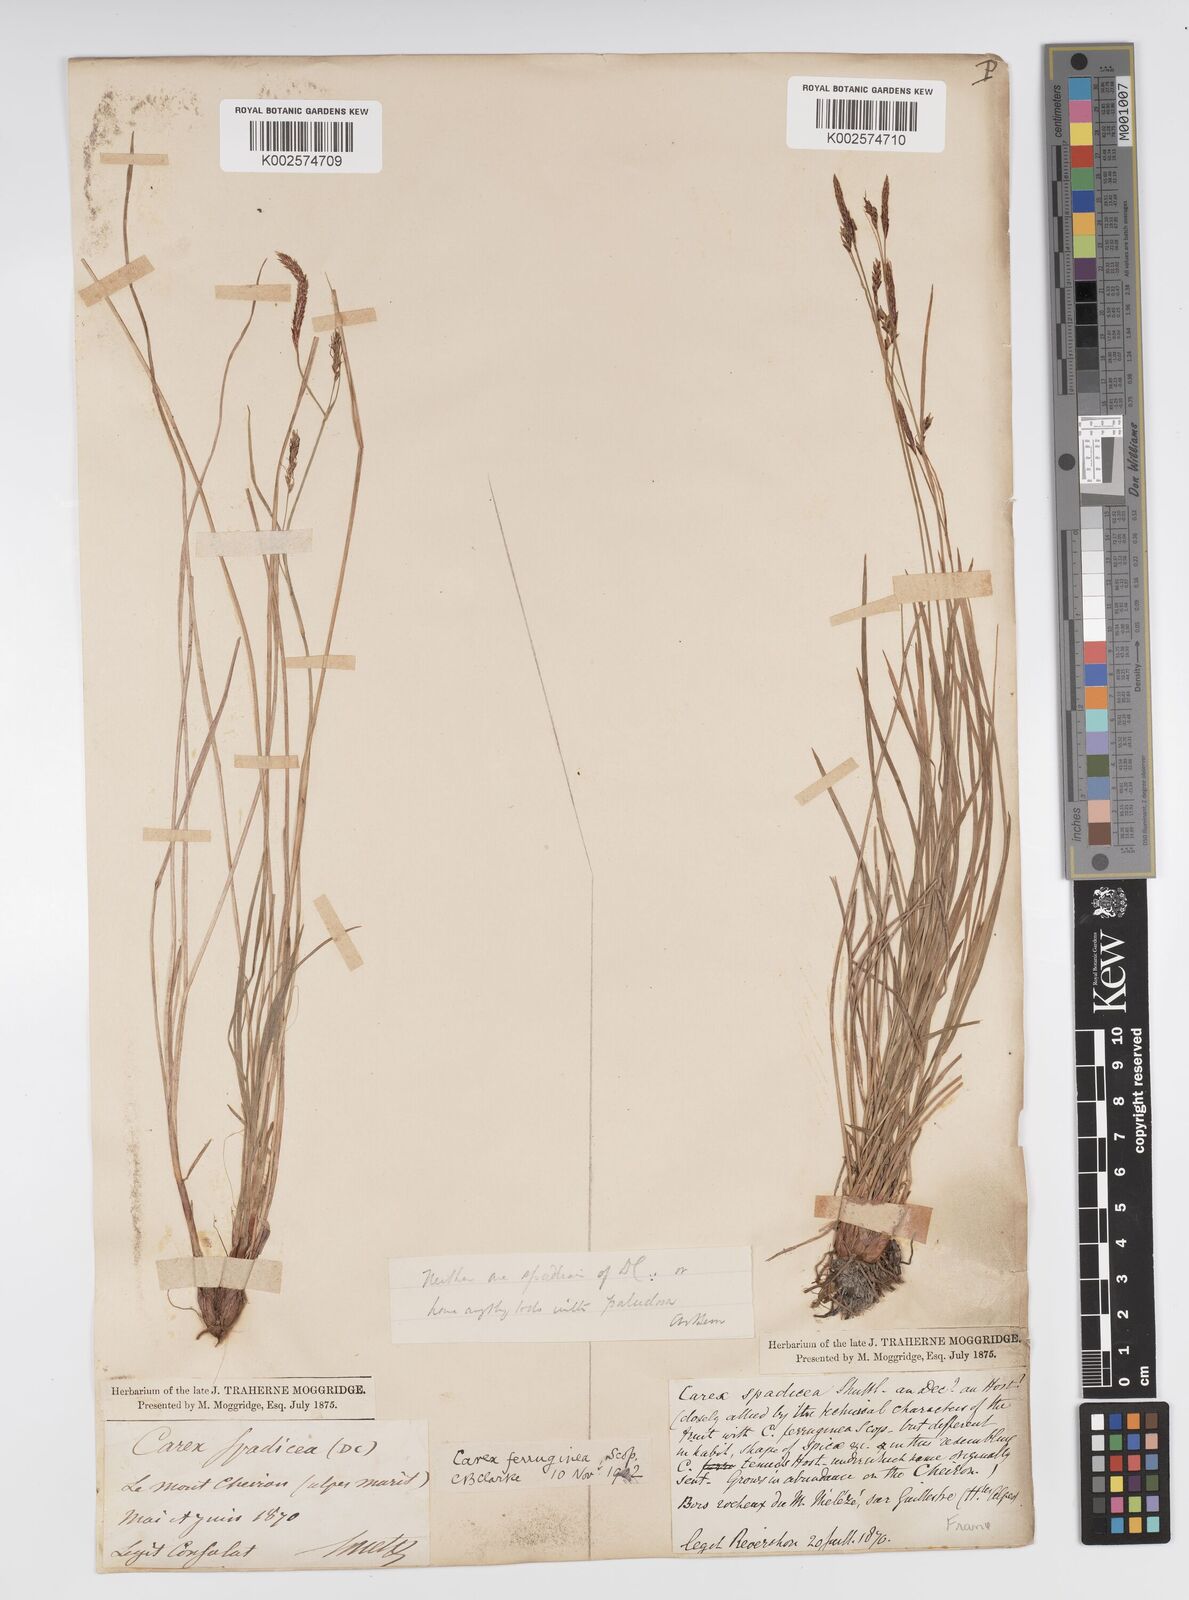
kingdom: Plantae
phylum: Tracheophyta
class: Liliopsida
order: Poales
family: Cyperaceae
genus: Carex
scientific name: Carex ferruginea
